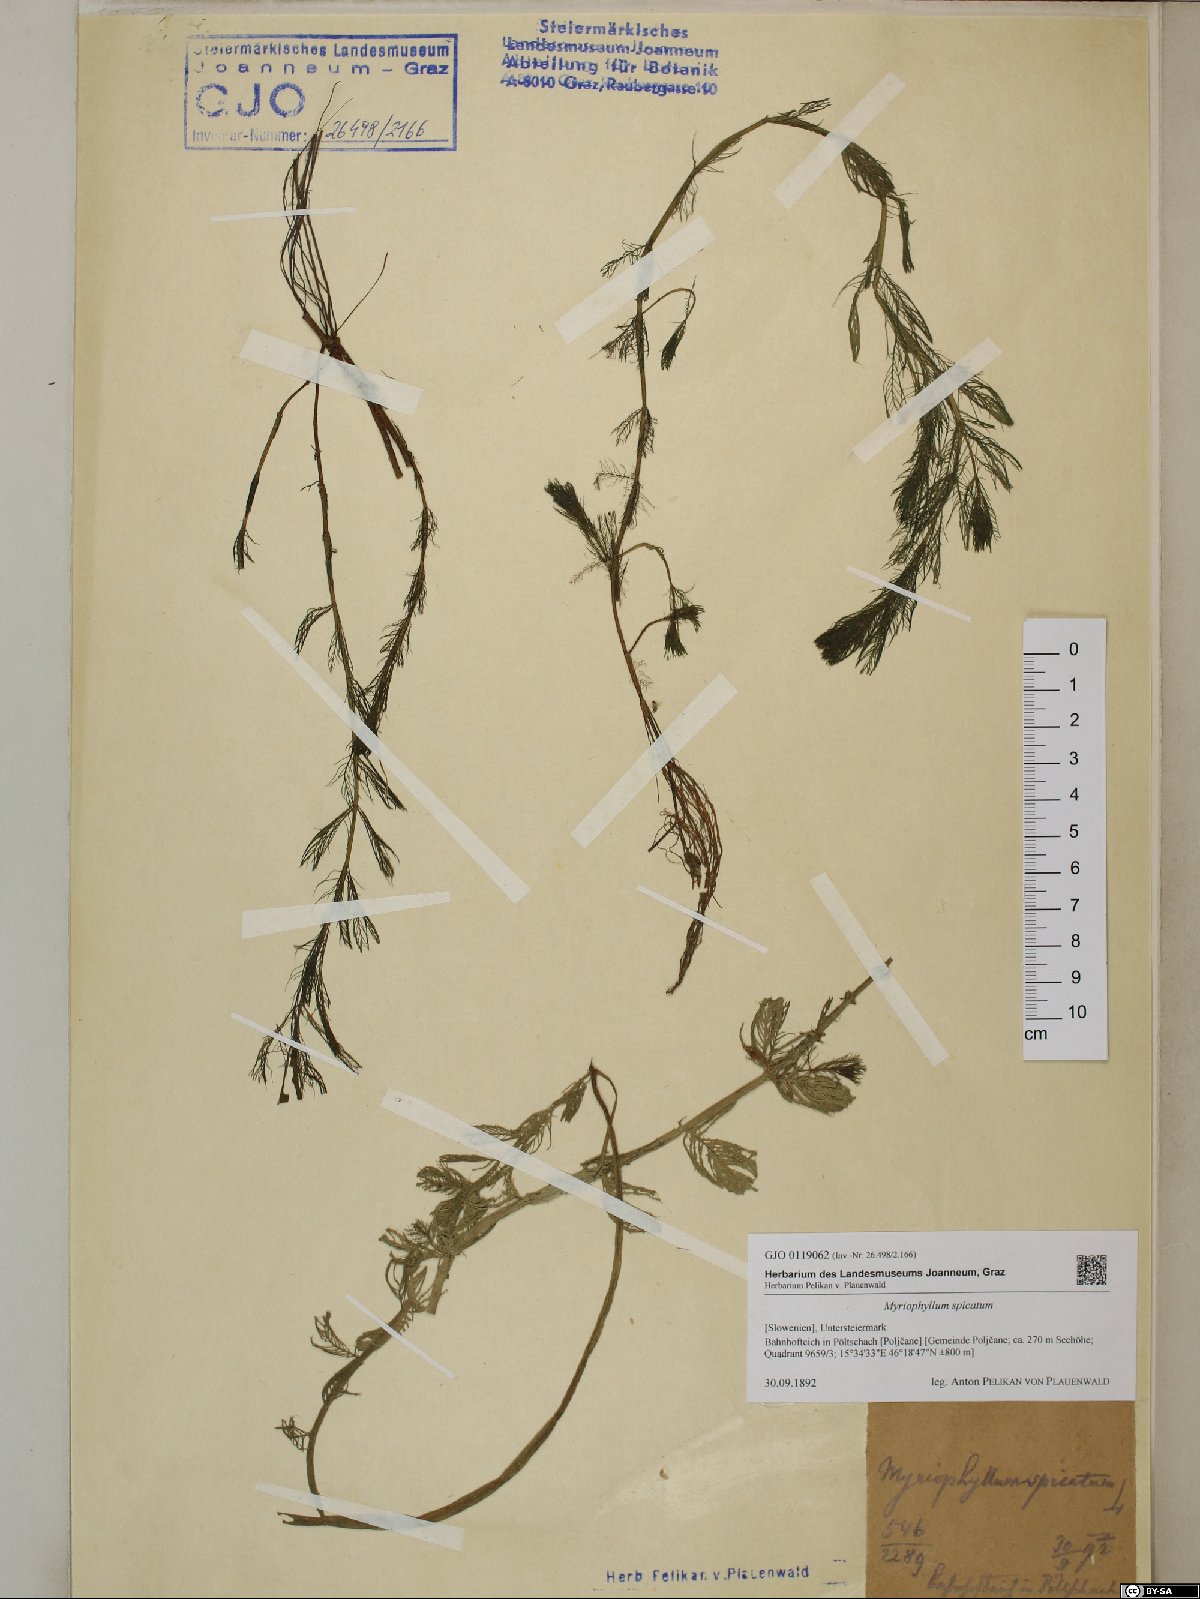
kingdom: Plantae
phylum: Tracheophyta
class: Magnoliopsida
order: Saxifragales
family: Haloragaceae
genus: Myriophyllum
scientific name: Myriophyllum spicatum
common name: Spiked water-milfoil
